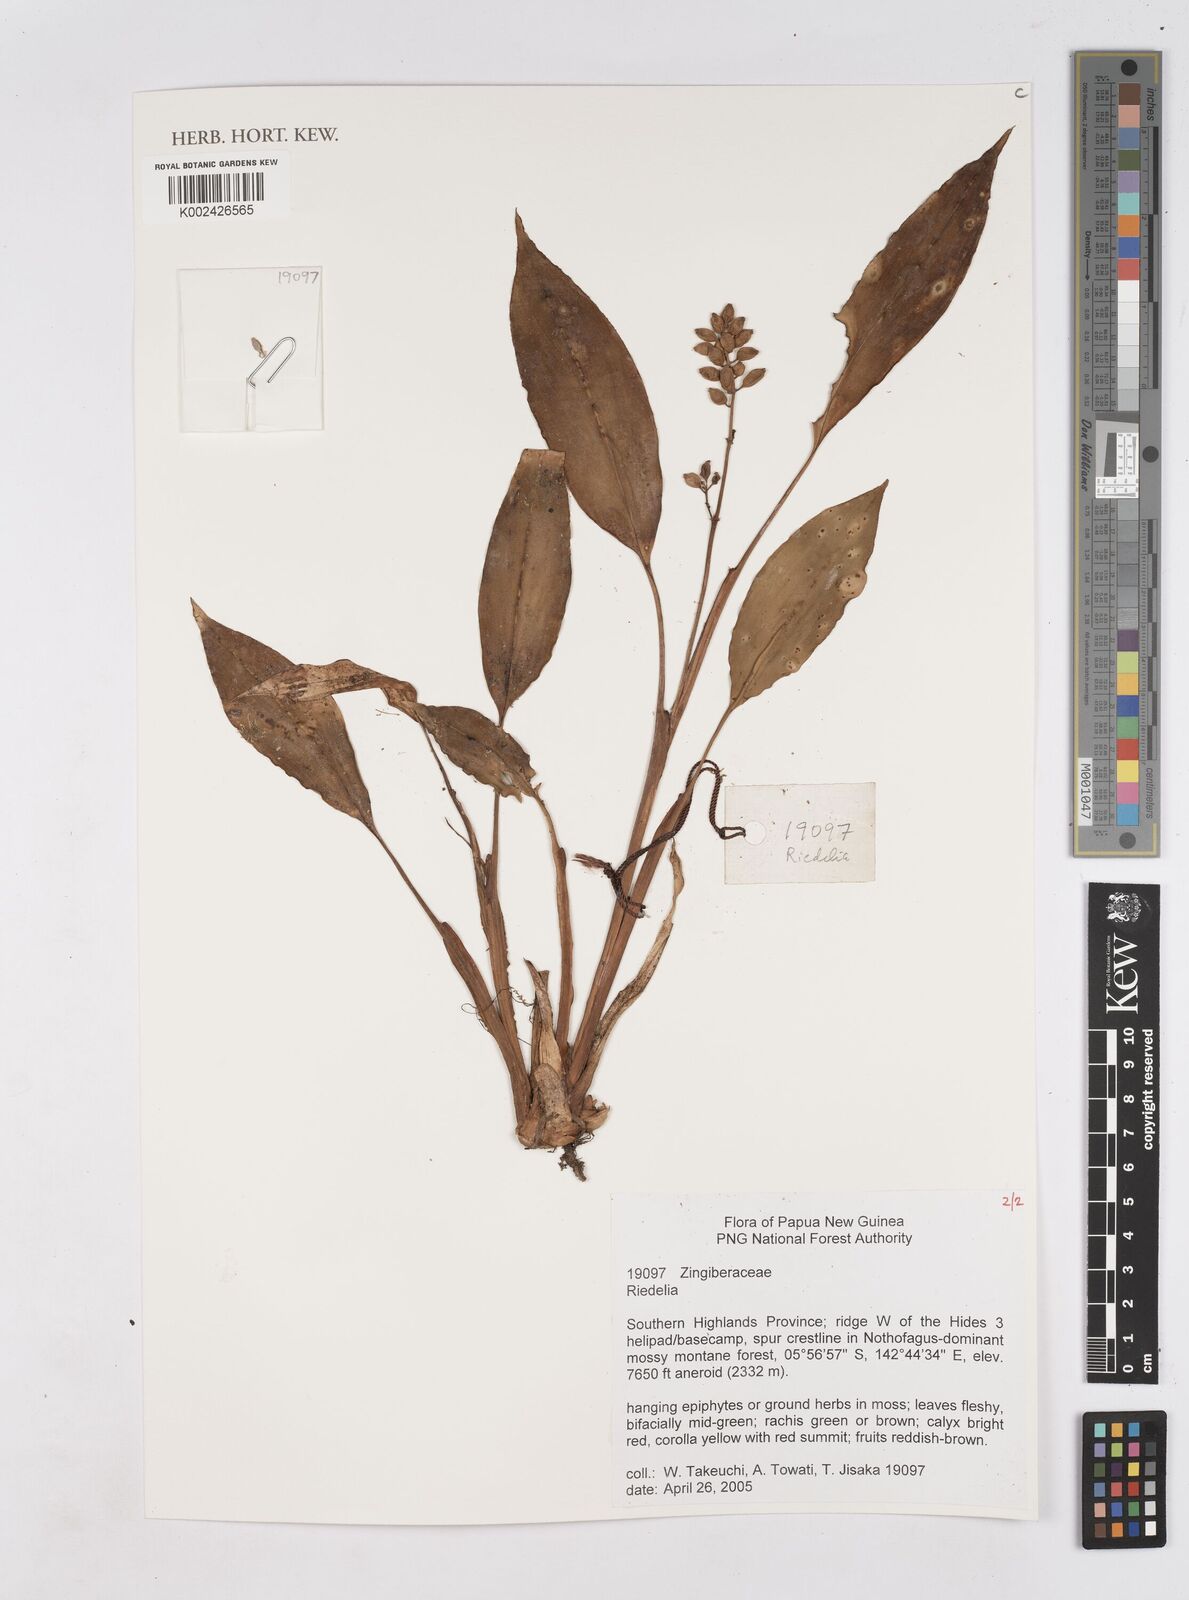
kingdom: Plantae
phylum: Tracheophyta
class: Liliopsida
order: Zingiberales
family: Zingiberaceae
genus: Riedelia
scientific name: Riedelia
